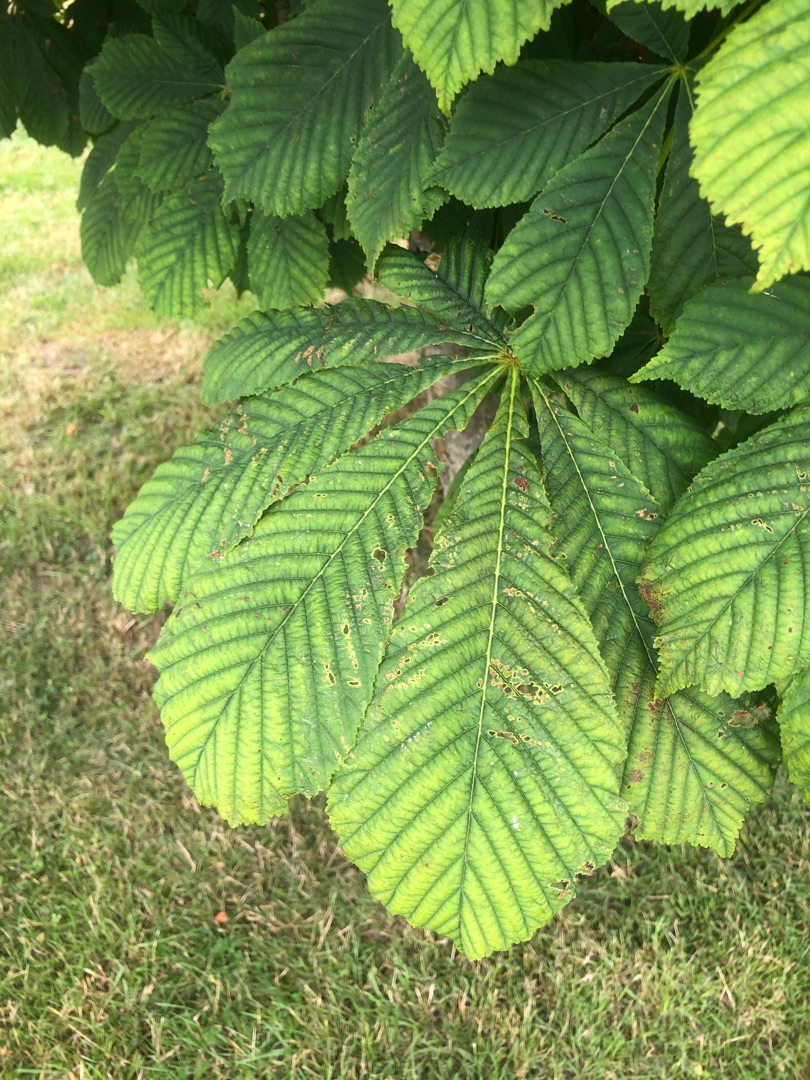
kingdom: Plantae
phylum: Tracheophyta
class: Magnoliopsida
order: Sapindales
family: Sapindaceae
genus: Aesculus
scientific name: Aesculus hippocastanum
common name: Hestekastanie
